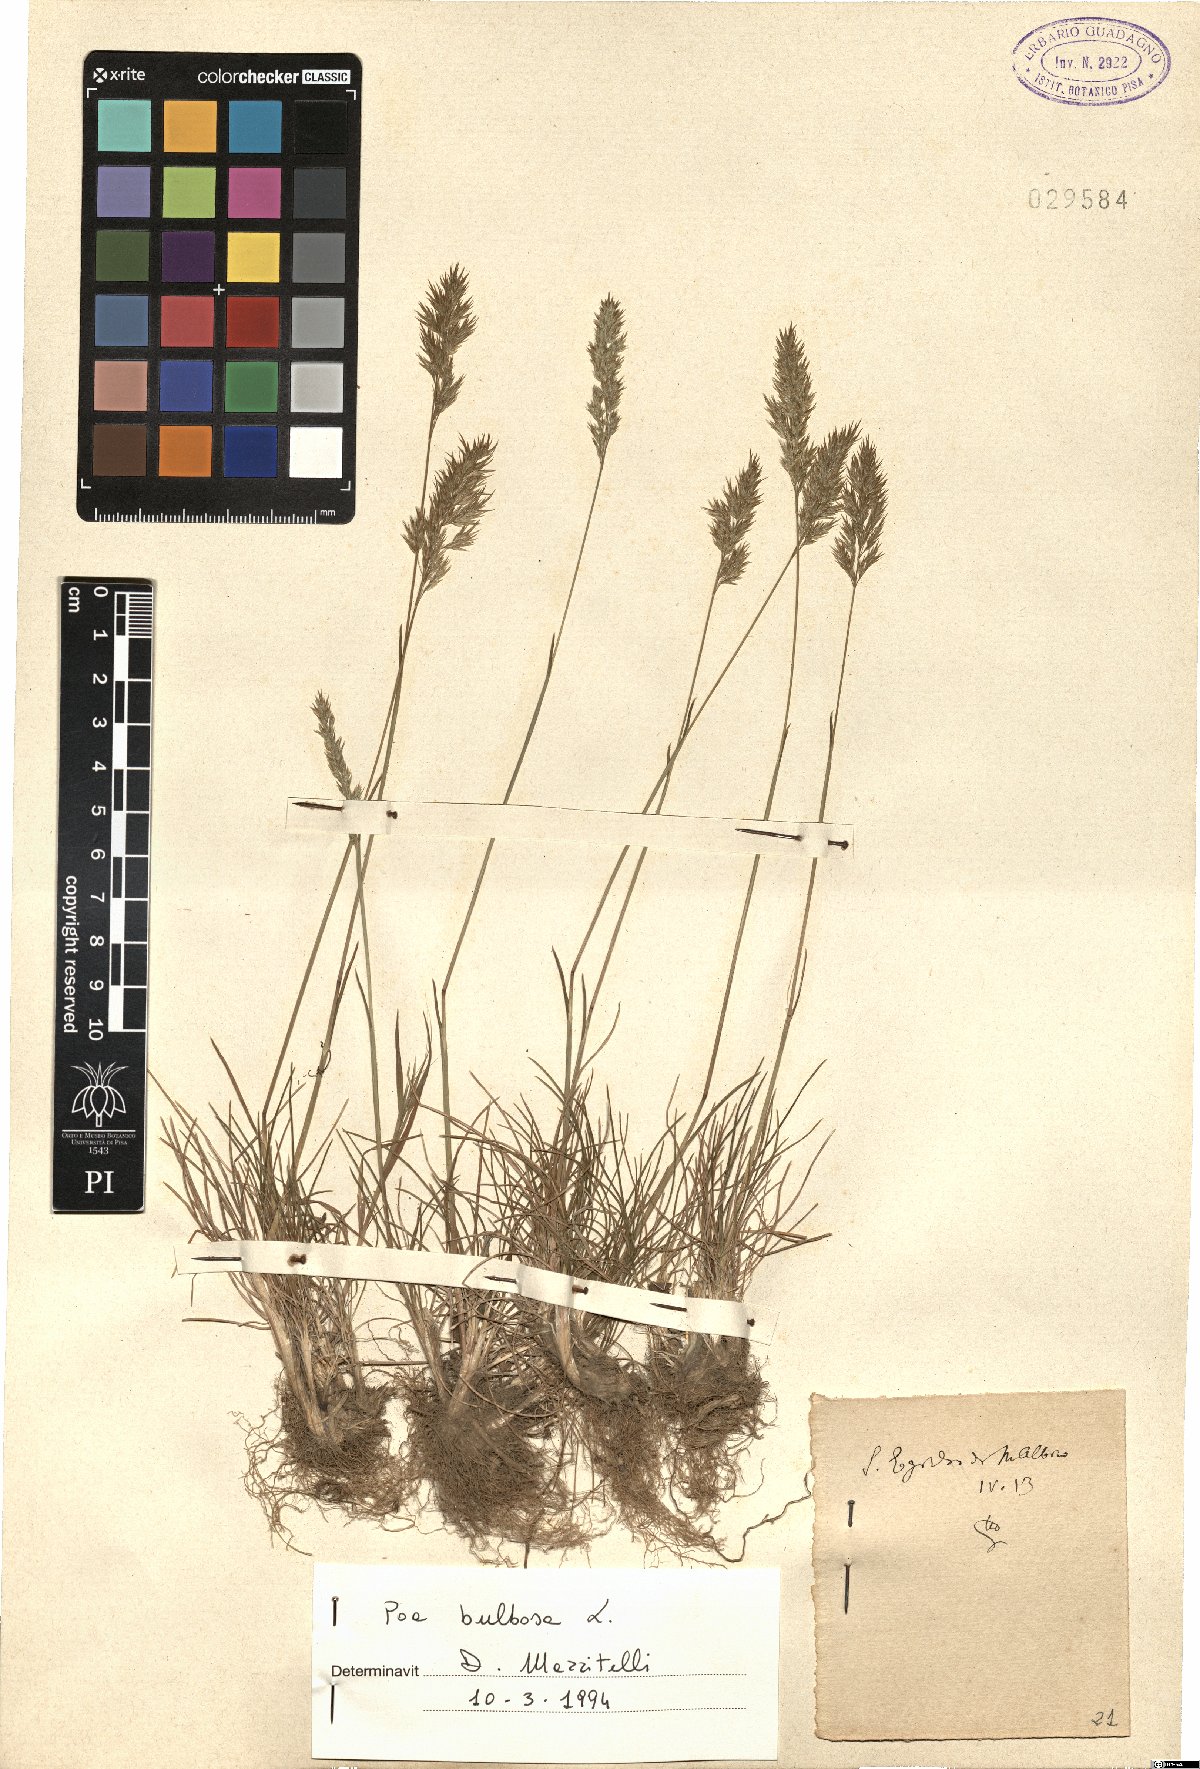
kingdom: Plantae
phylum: Tracheophyta
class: Liliopsida
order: Poales
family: Poaceae
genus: Poa
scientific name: Poa bulbosa
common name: Bulbous bluegrass
